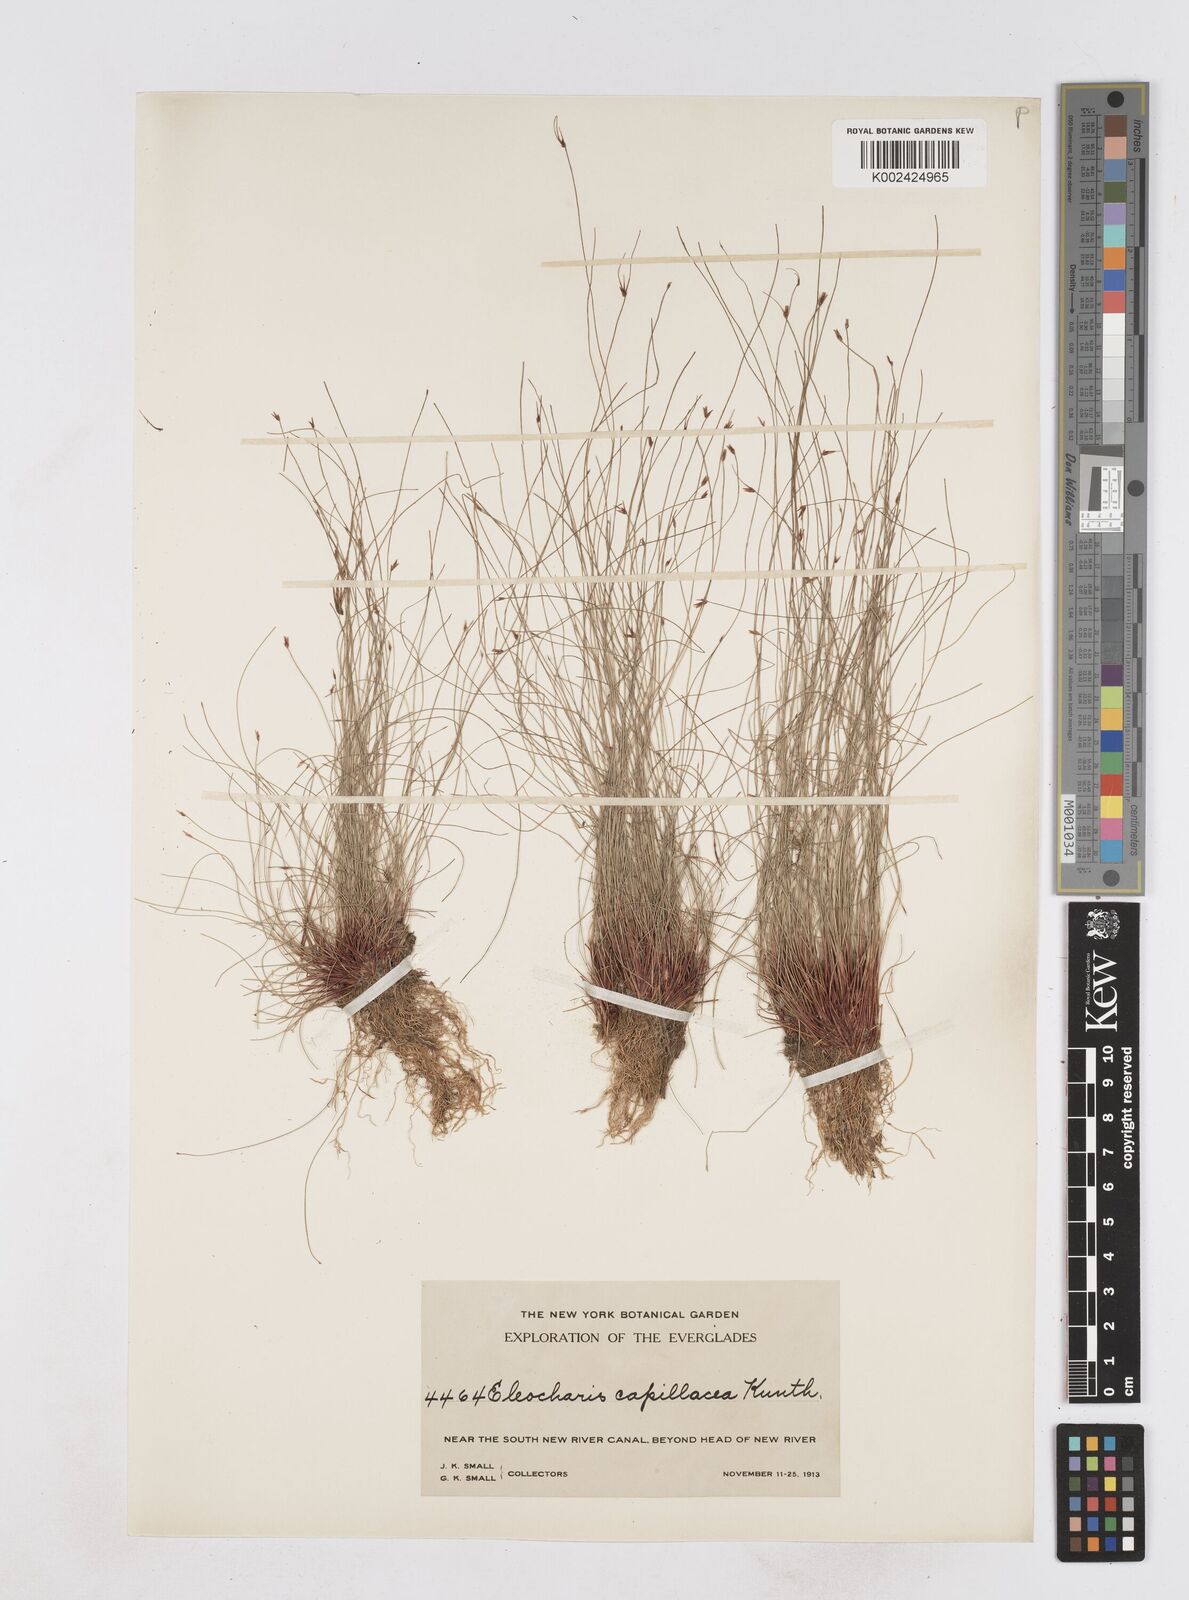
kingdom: Plantae
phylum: Tracheophyta
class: Liliopsida
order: Poales
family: Cyperaceae
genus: Eleocharis
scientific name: Eleocharis capillacea
